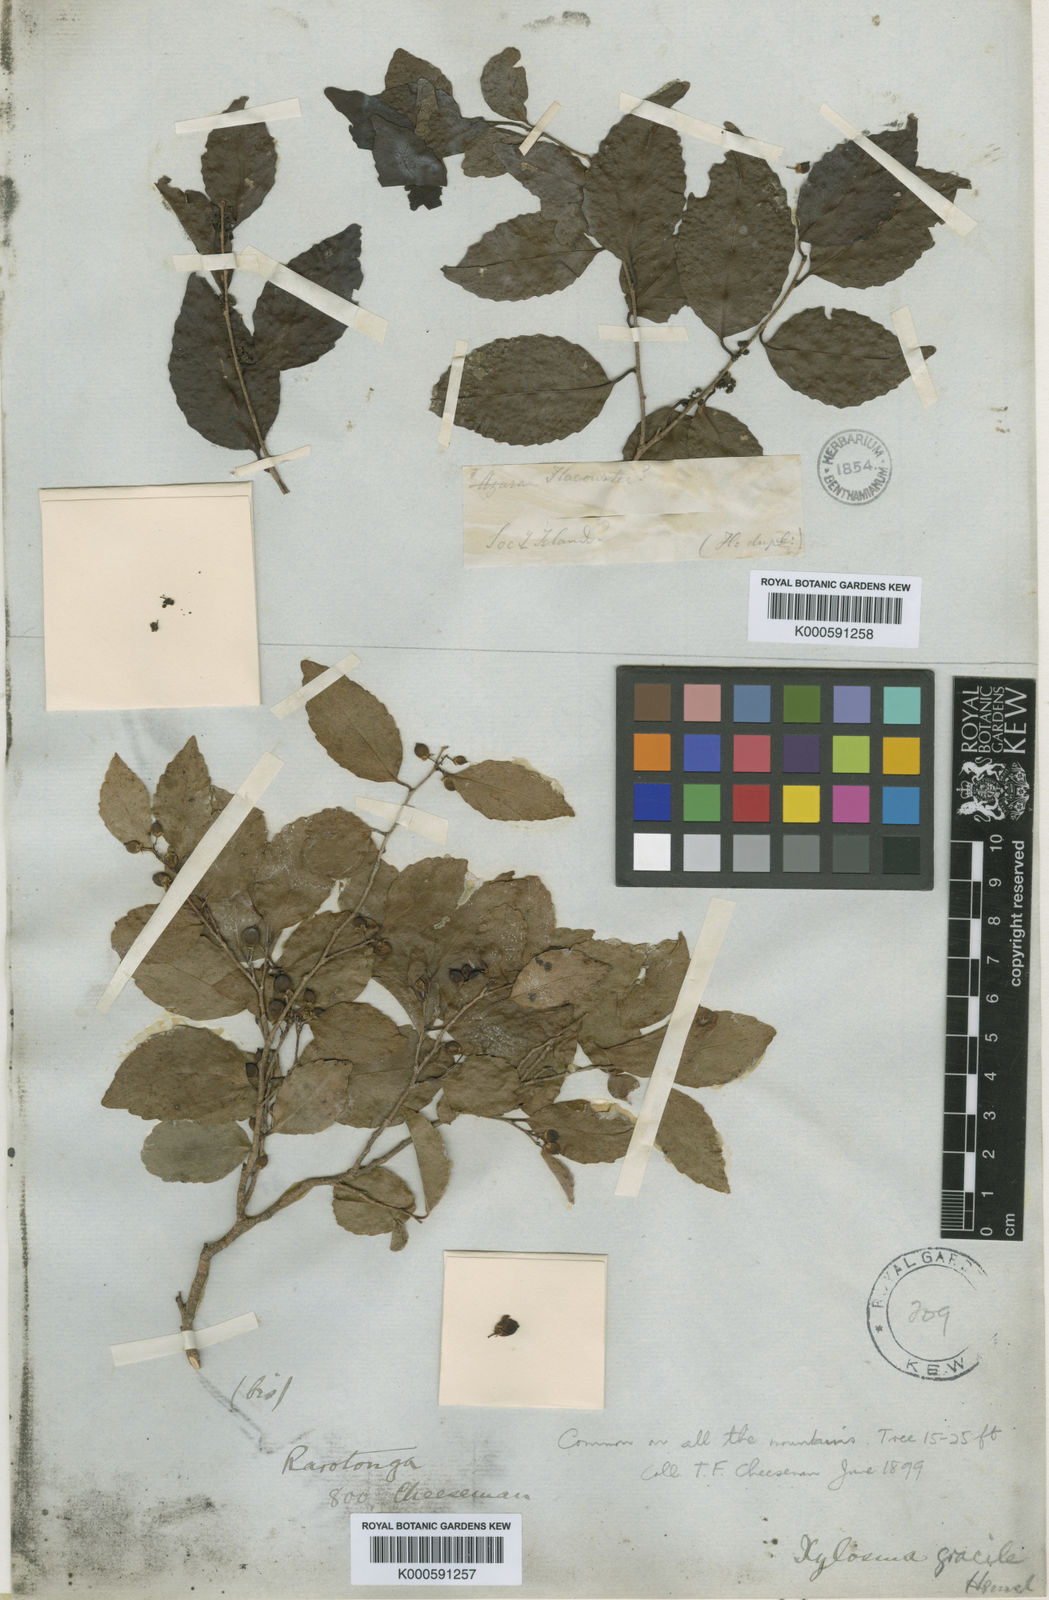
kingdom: Plantae
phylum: Tracheophyta
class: Magnoliopsida
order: Malpighiales
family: Salicaceae
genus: Xylosma
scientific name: Xylosma suaveolens
